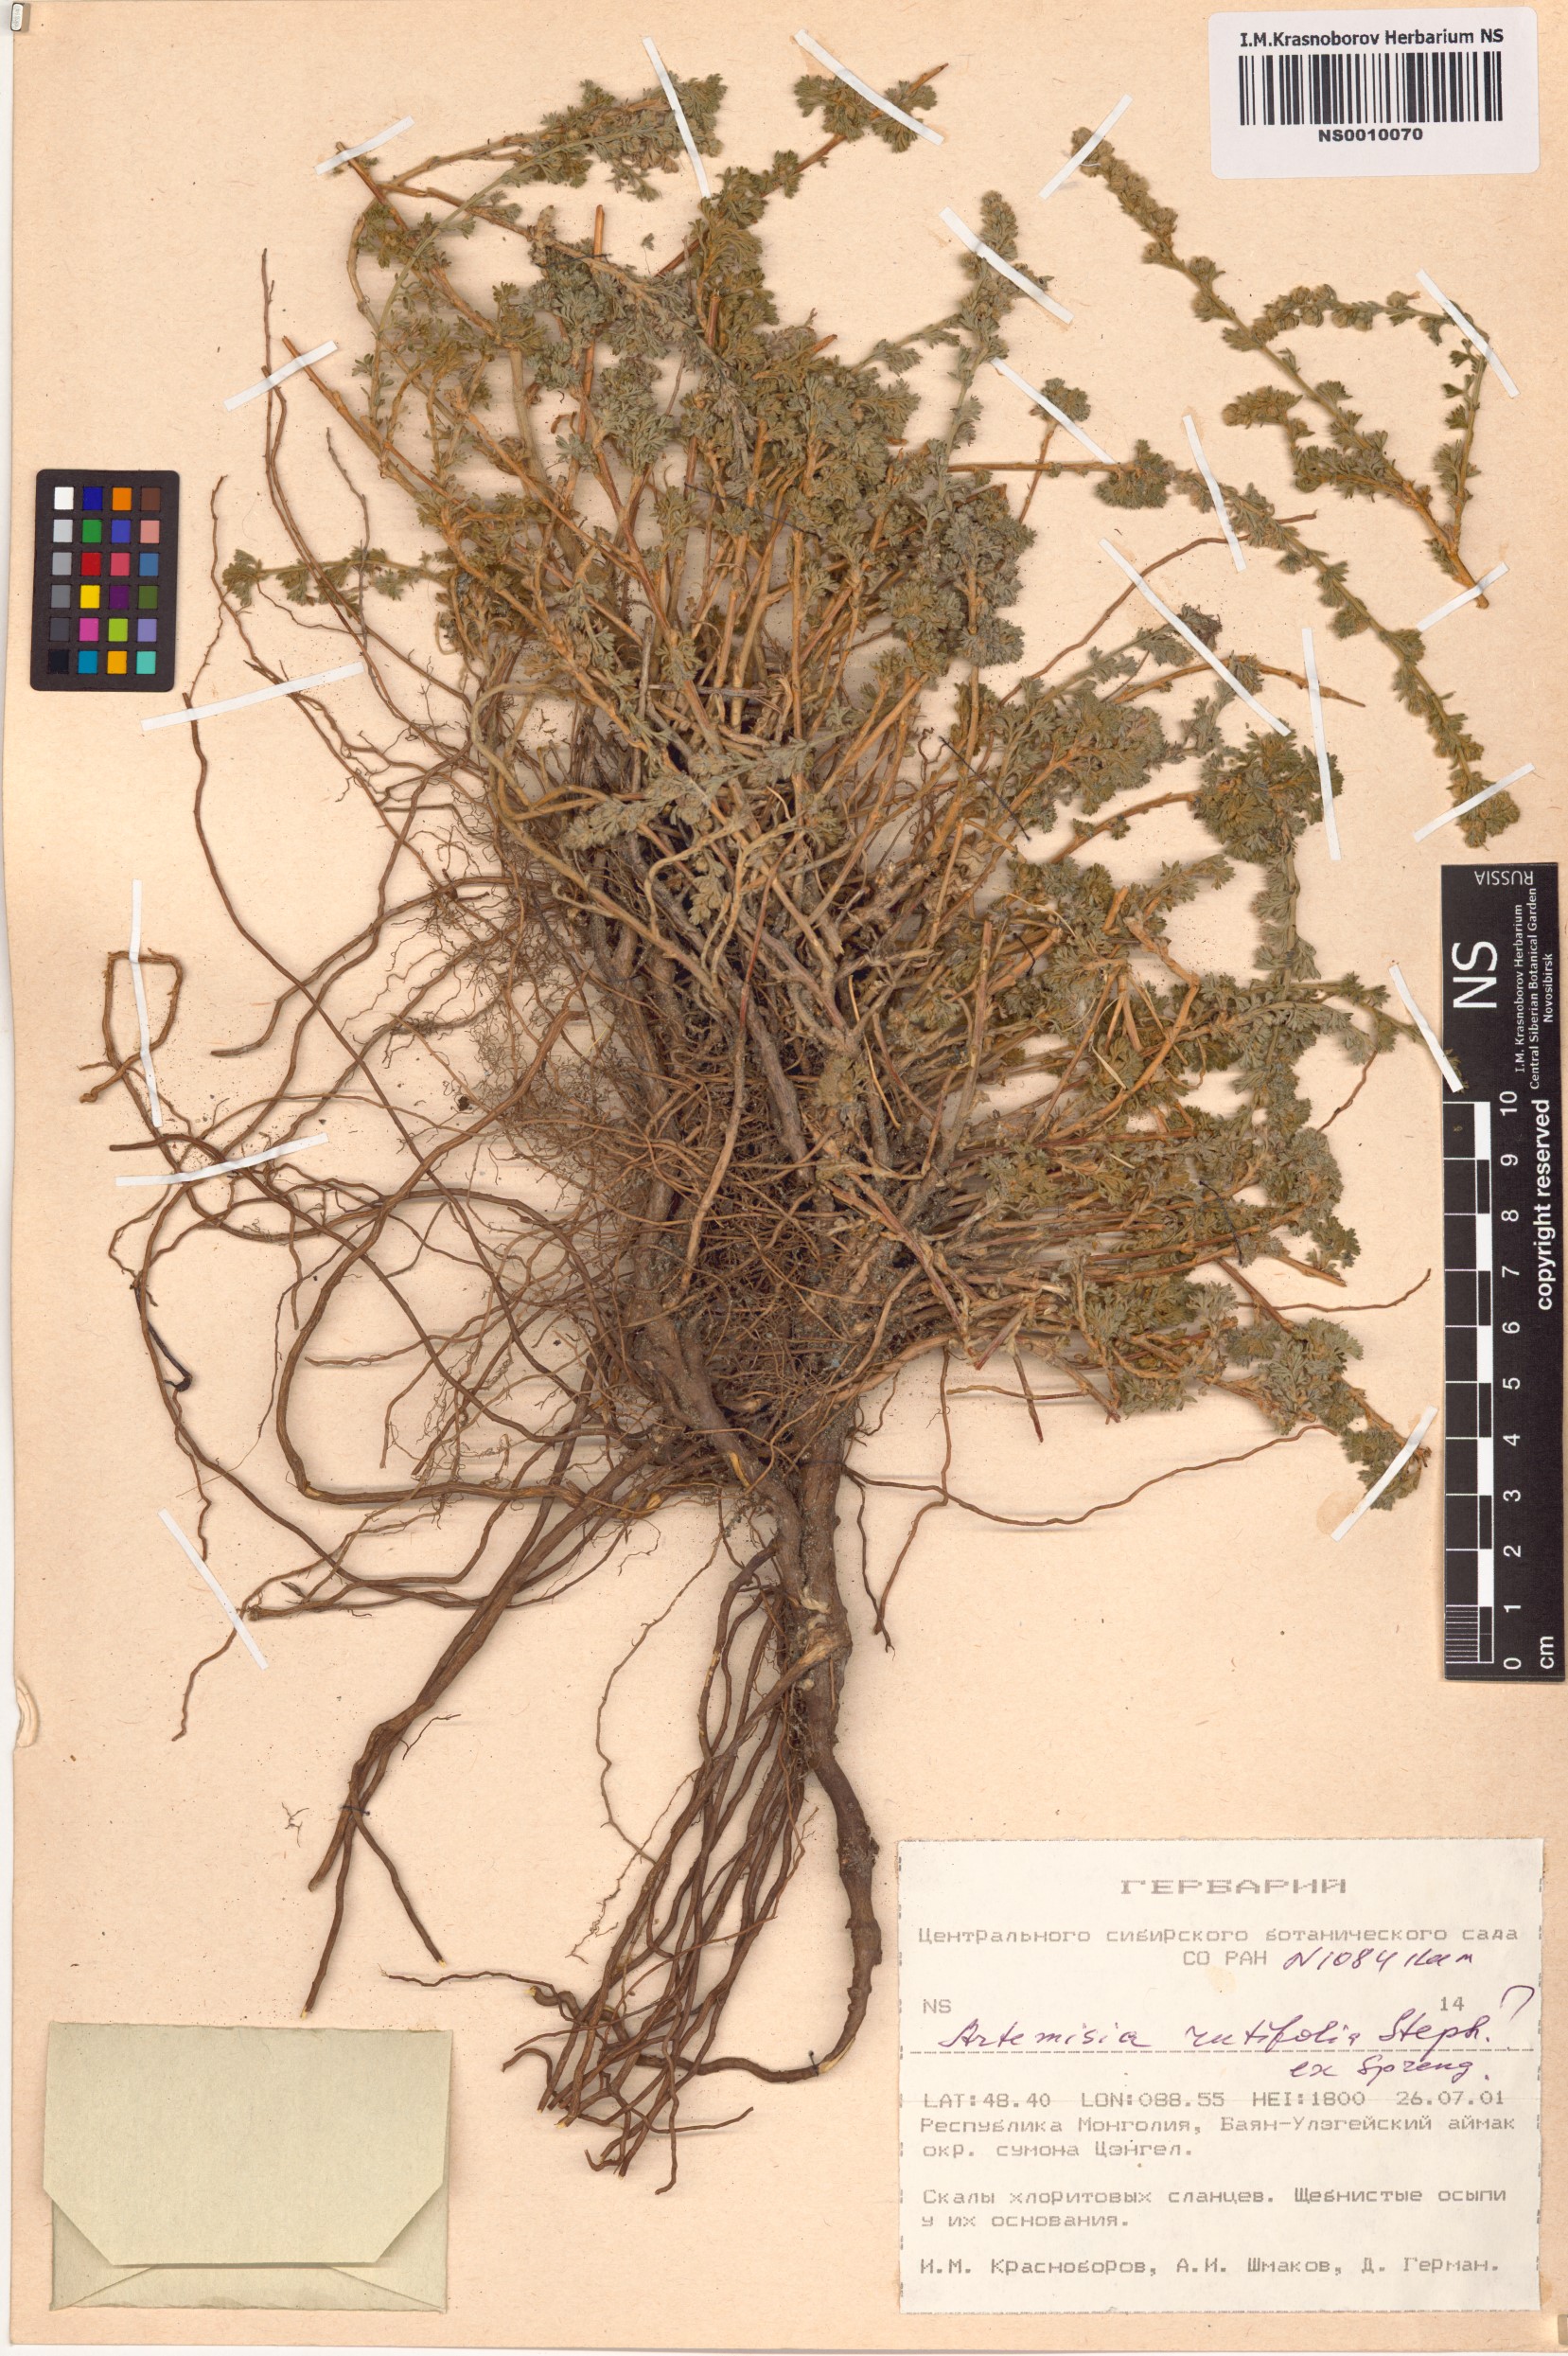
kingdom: Plantae
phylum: Tracheophyta
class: Magnoliopsida
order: Asterales
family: Asteraceae
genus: Artemisia
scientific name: Artemisia rutifolia
